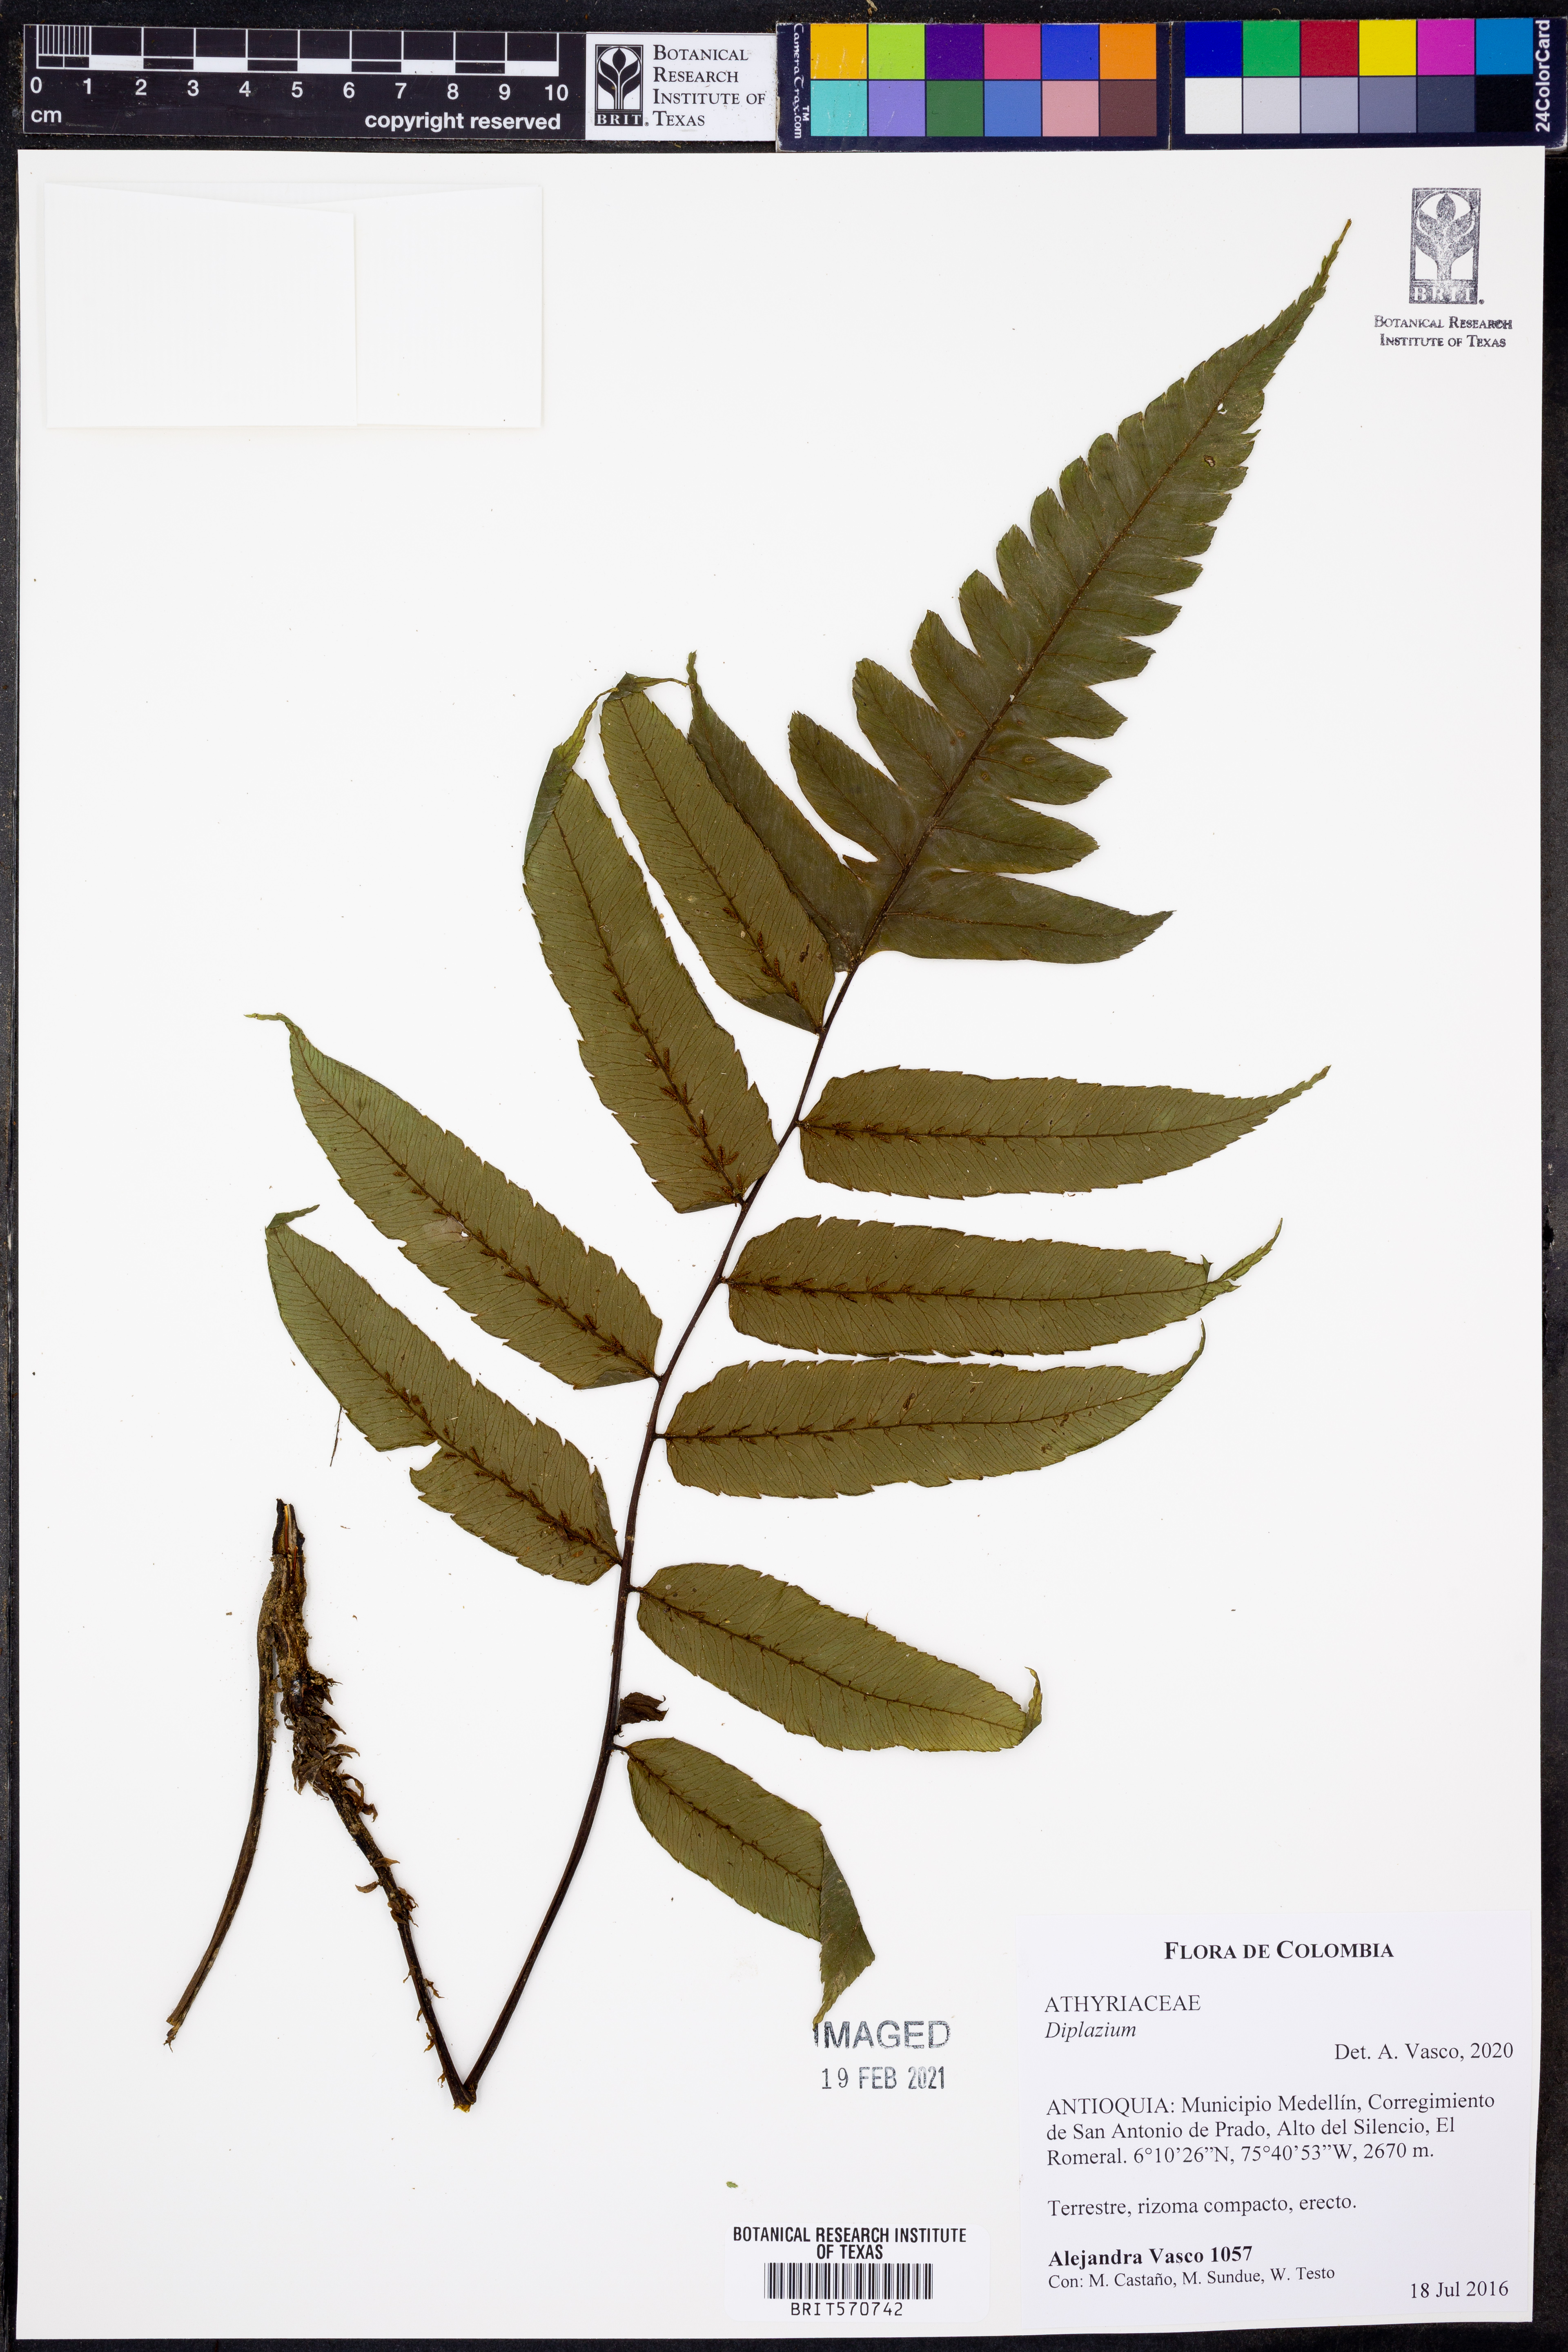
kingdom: Plantae
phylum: Tracheophyta
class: Polypodiopsida
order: Polypodiales
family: Athyriaceae
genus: Diplazium
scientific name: Diplazium
